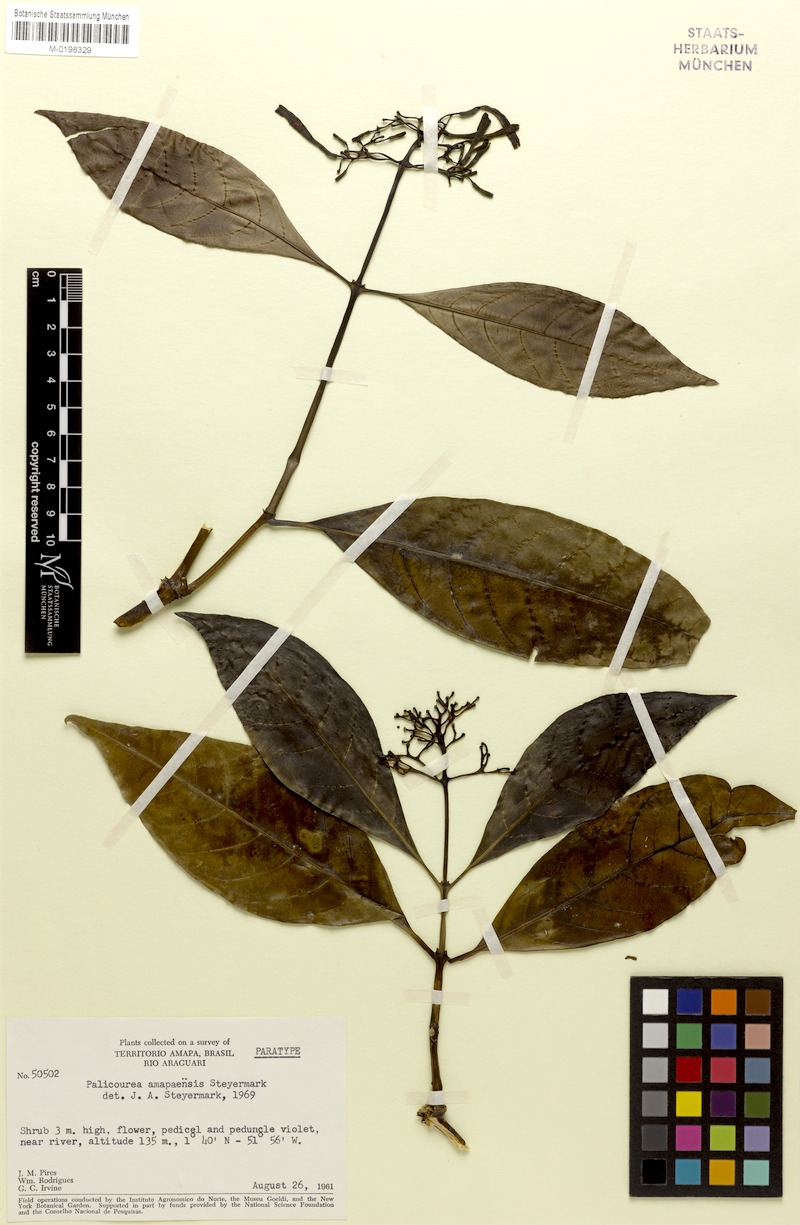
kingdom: Plantae
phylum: Tracheophyta
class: Magnoliopsida
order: Gentianales
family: Rubiaceae
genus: Palicourea
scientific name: Palicourea amapaensis
